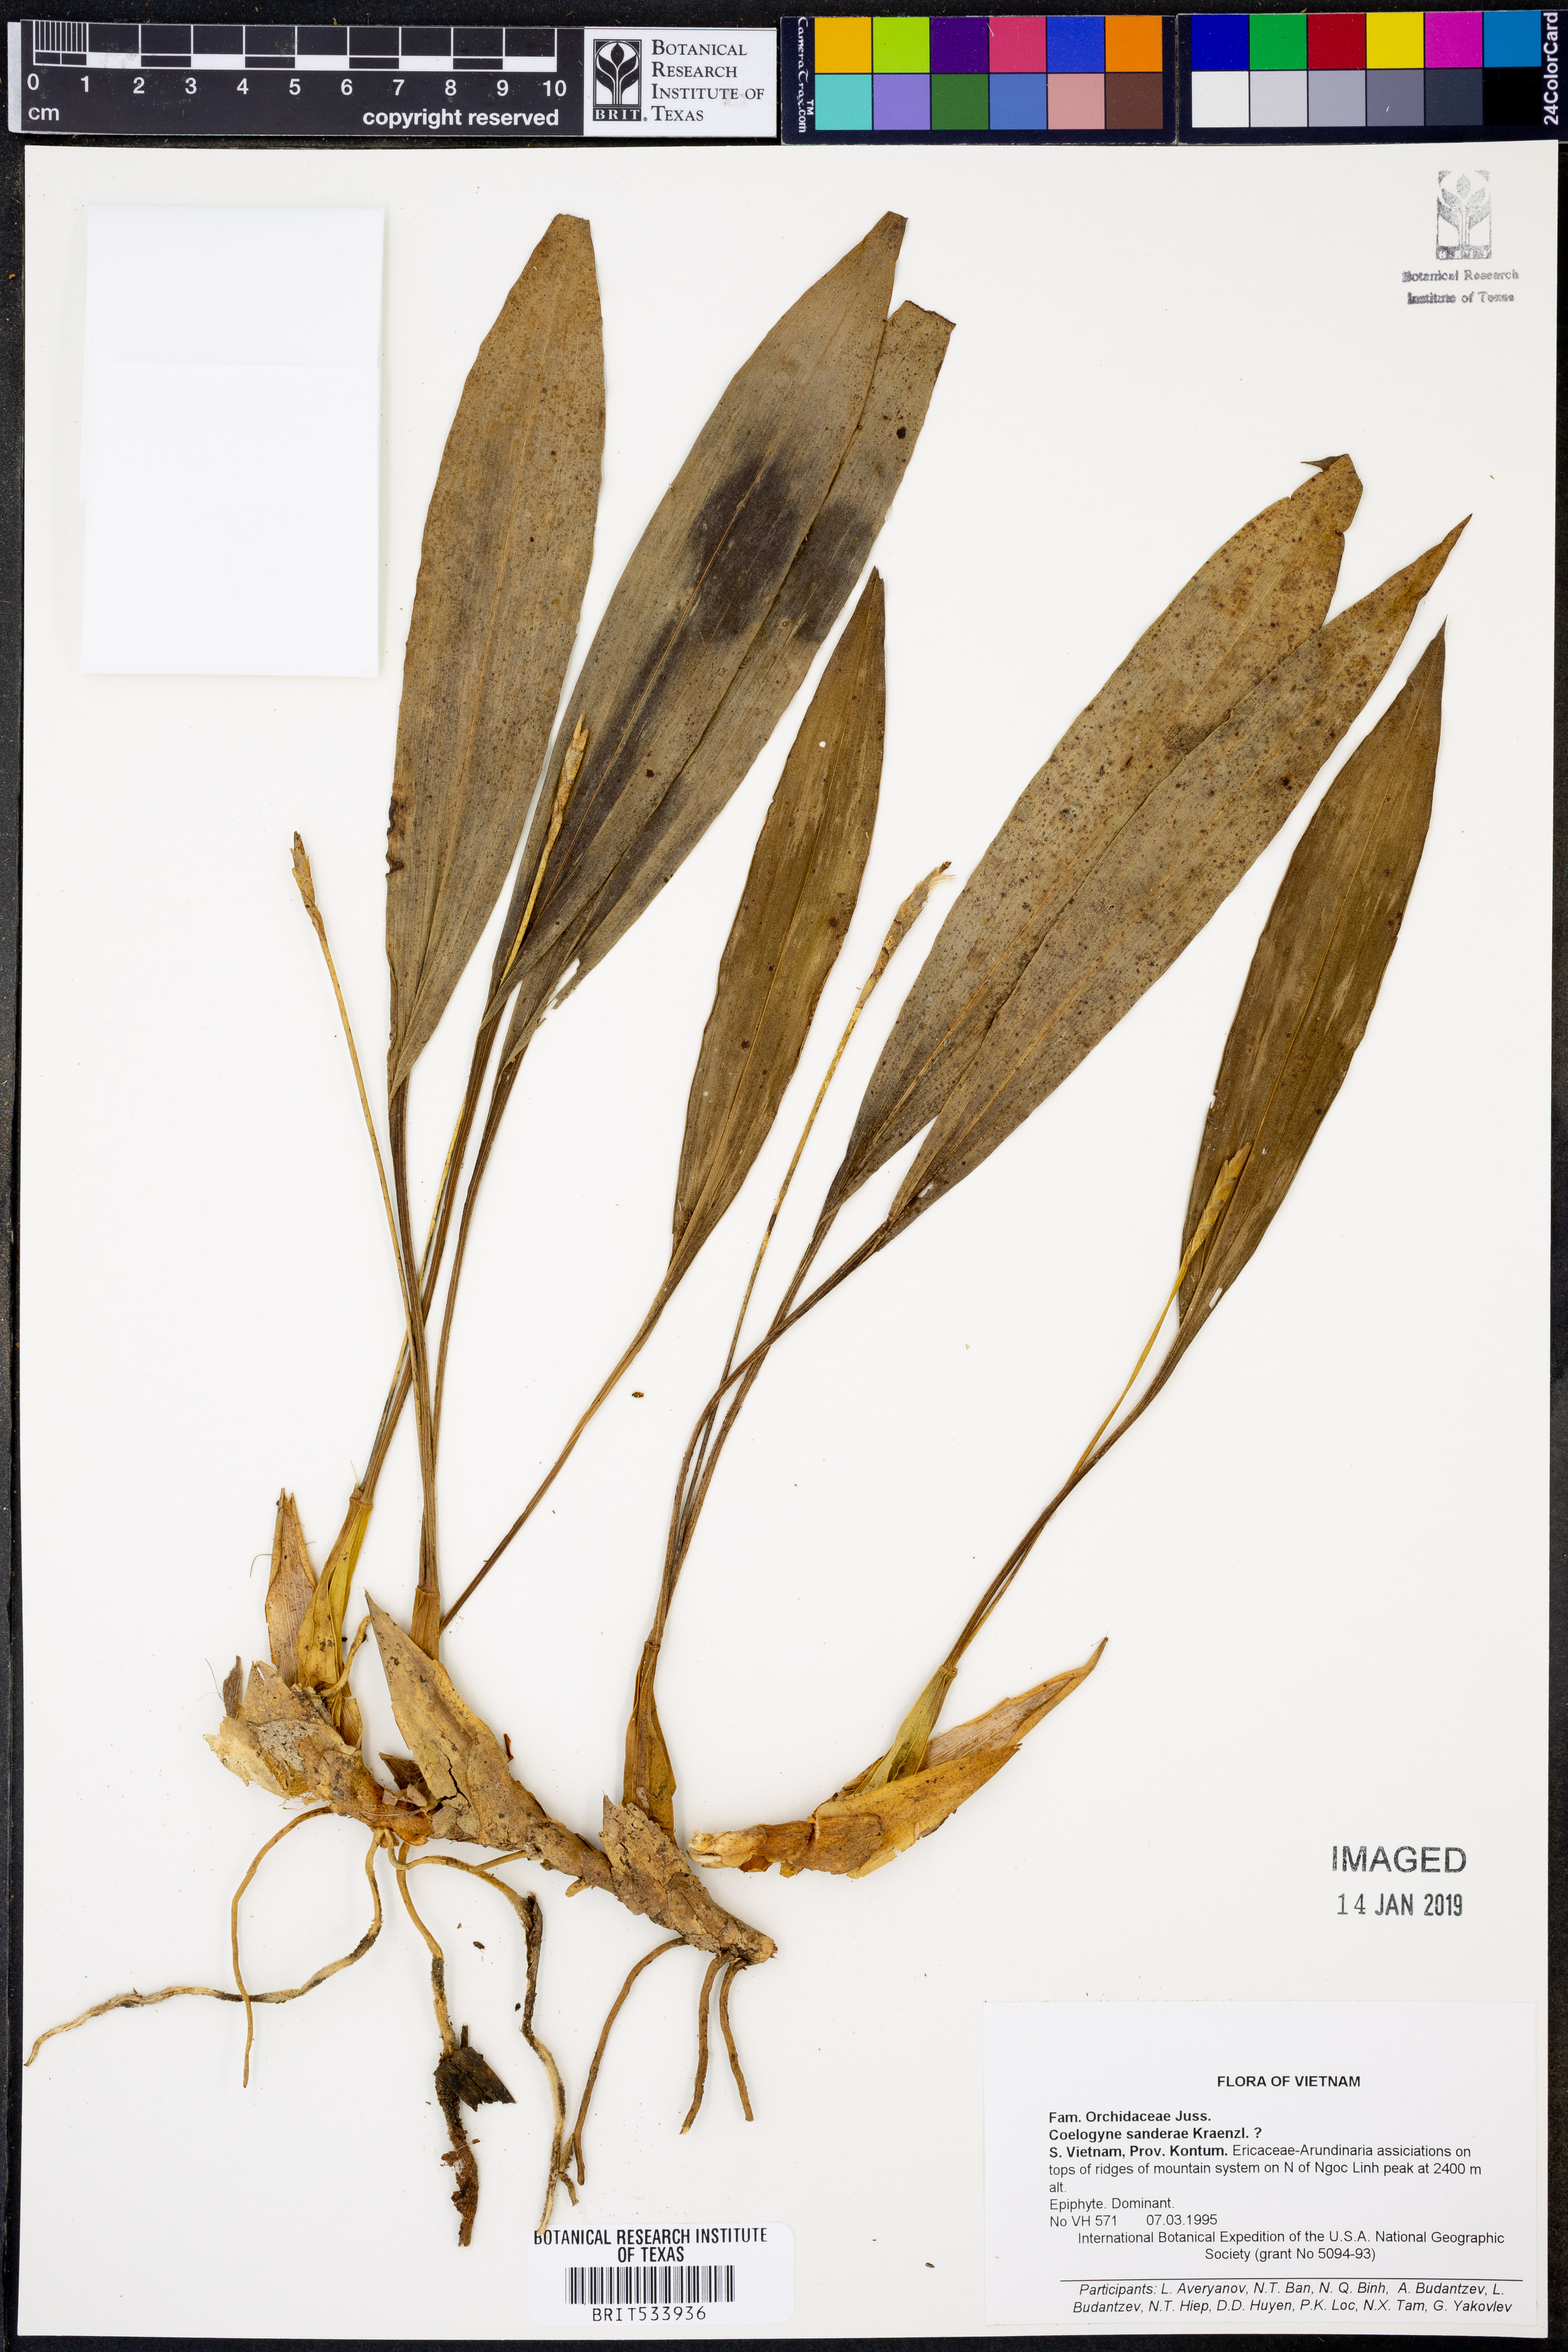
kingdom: Plantae
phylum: Tracheophyta
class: Liliopsida
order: Asparagales
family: Orchidaceae
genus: Coelogyne
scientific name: Coelogyne sanderae
